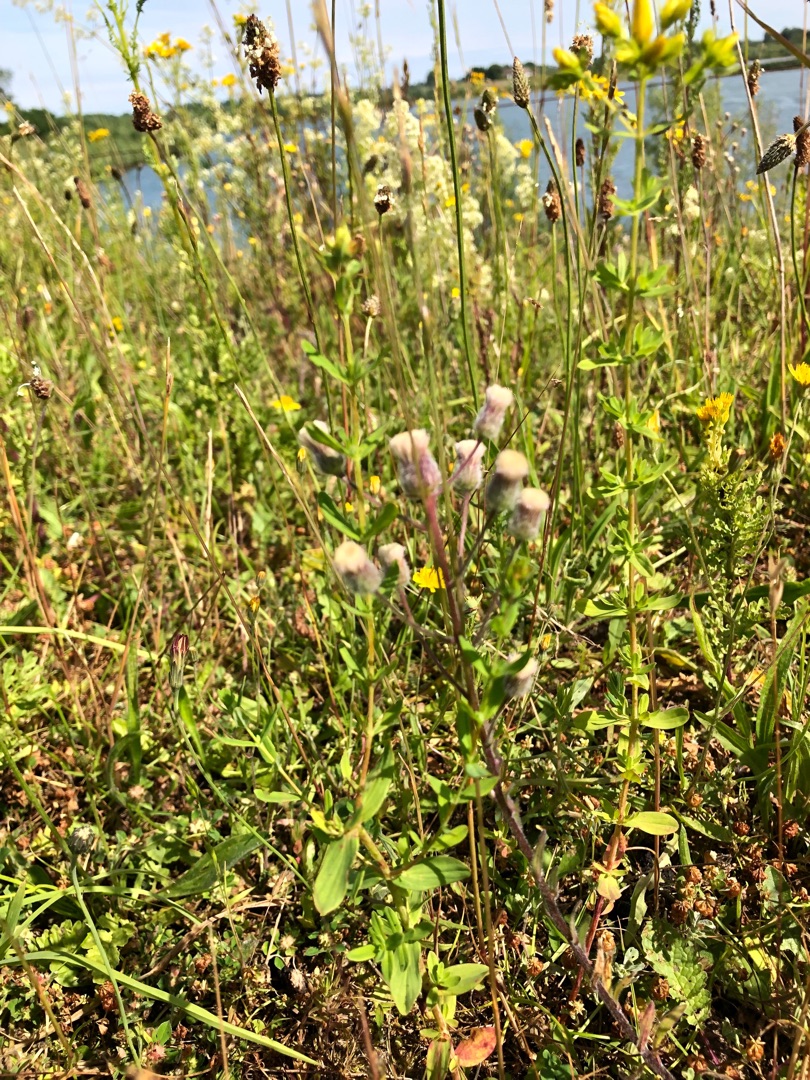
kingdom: Plantae
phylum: Tracheophyta
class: Magnoliopsida
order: Asterales
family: Asteraceae
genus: Erigeron
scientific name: Erigeron acris
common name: Bitter bakkestjerne
